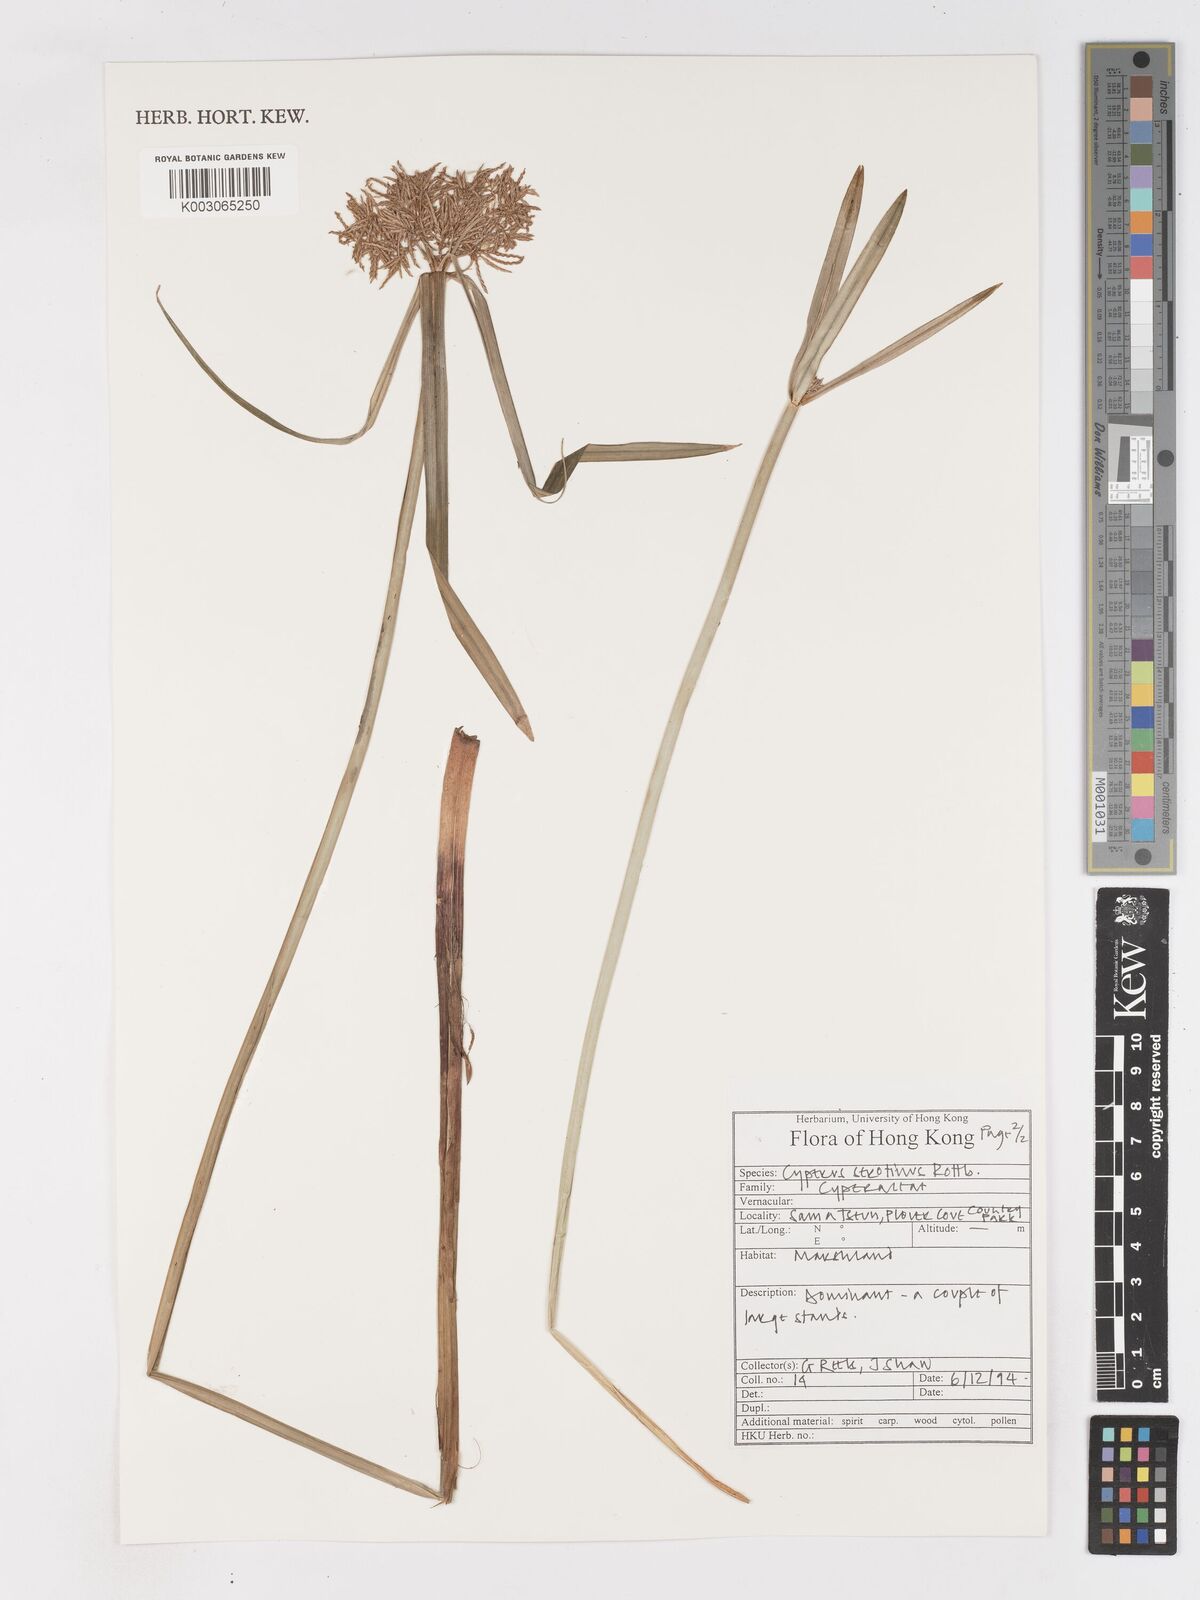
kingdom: Plantae
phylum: Tracheophyta
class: Liliopsida
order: Poales
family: Cyperaceae
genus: Cyperus
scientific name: Cyperus serotinus
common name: Tidalmarsh flatsedge
